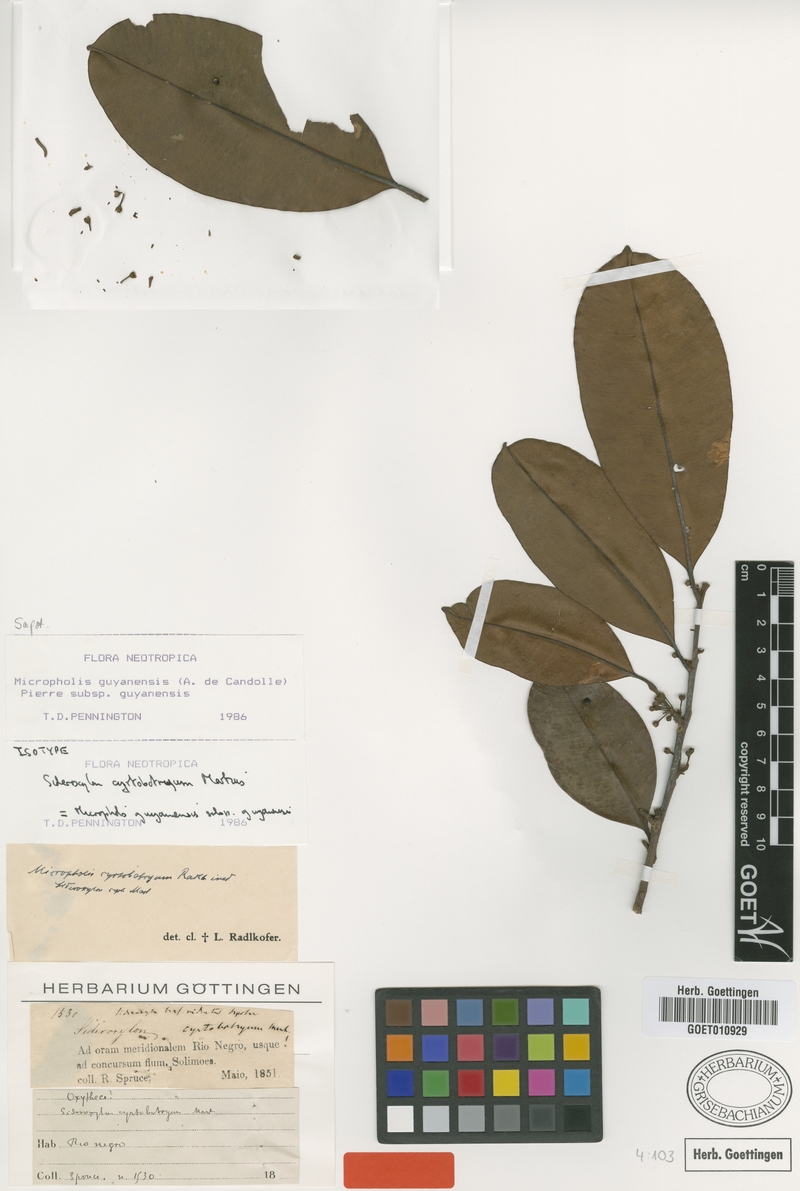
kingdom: Plantae
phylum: Tracheophyta
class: Magnoliopsida
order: Ericales
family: Sapotaceae
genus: Micropholis
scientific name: Micropholis guyanensis
